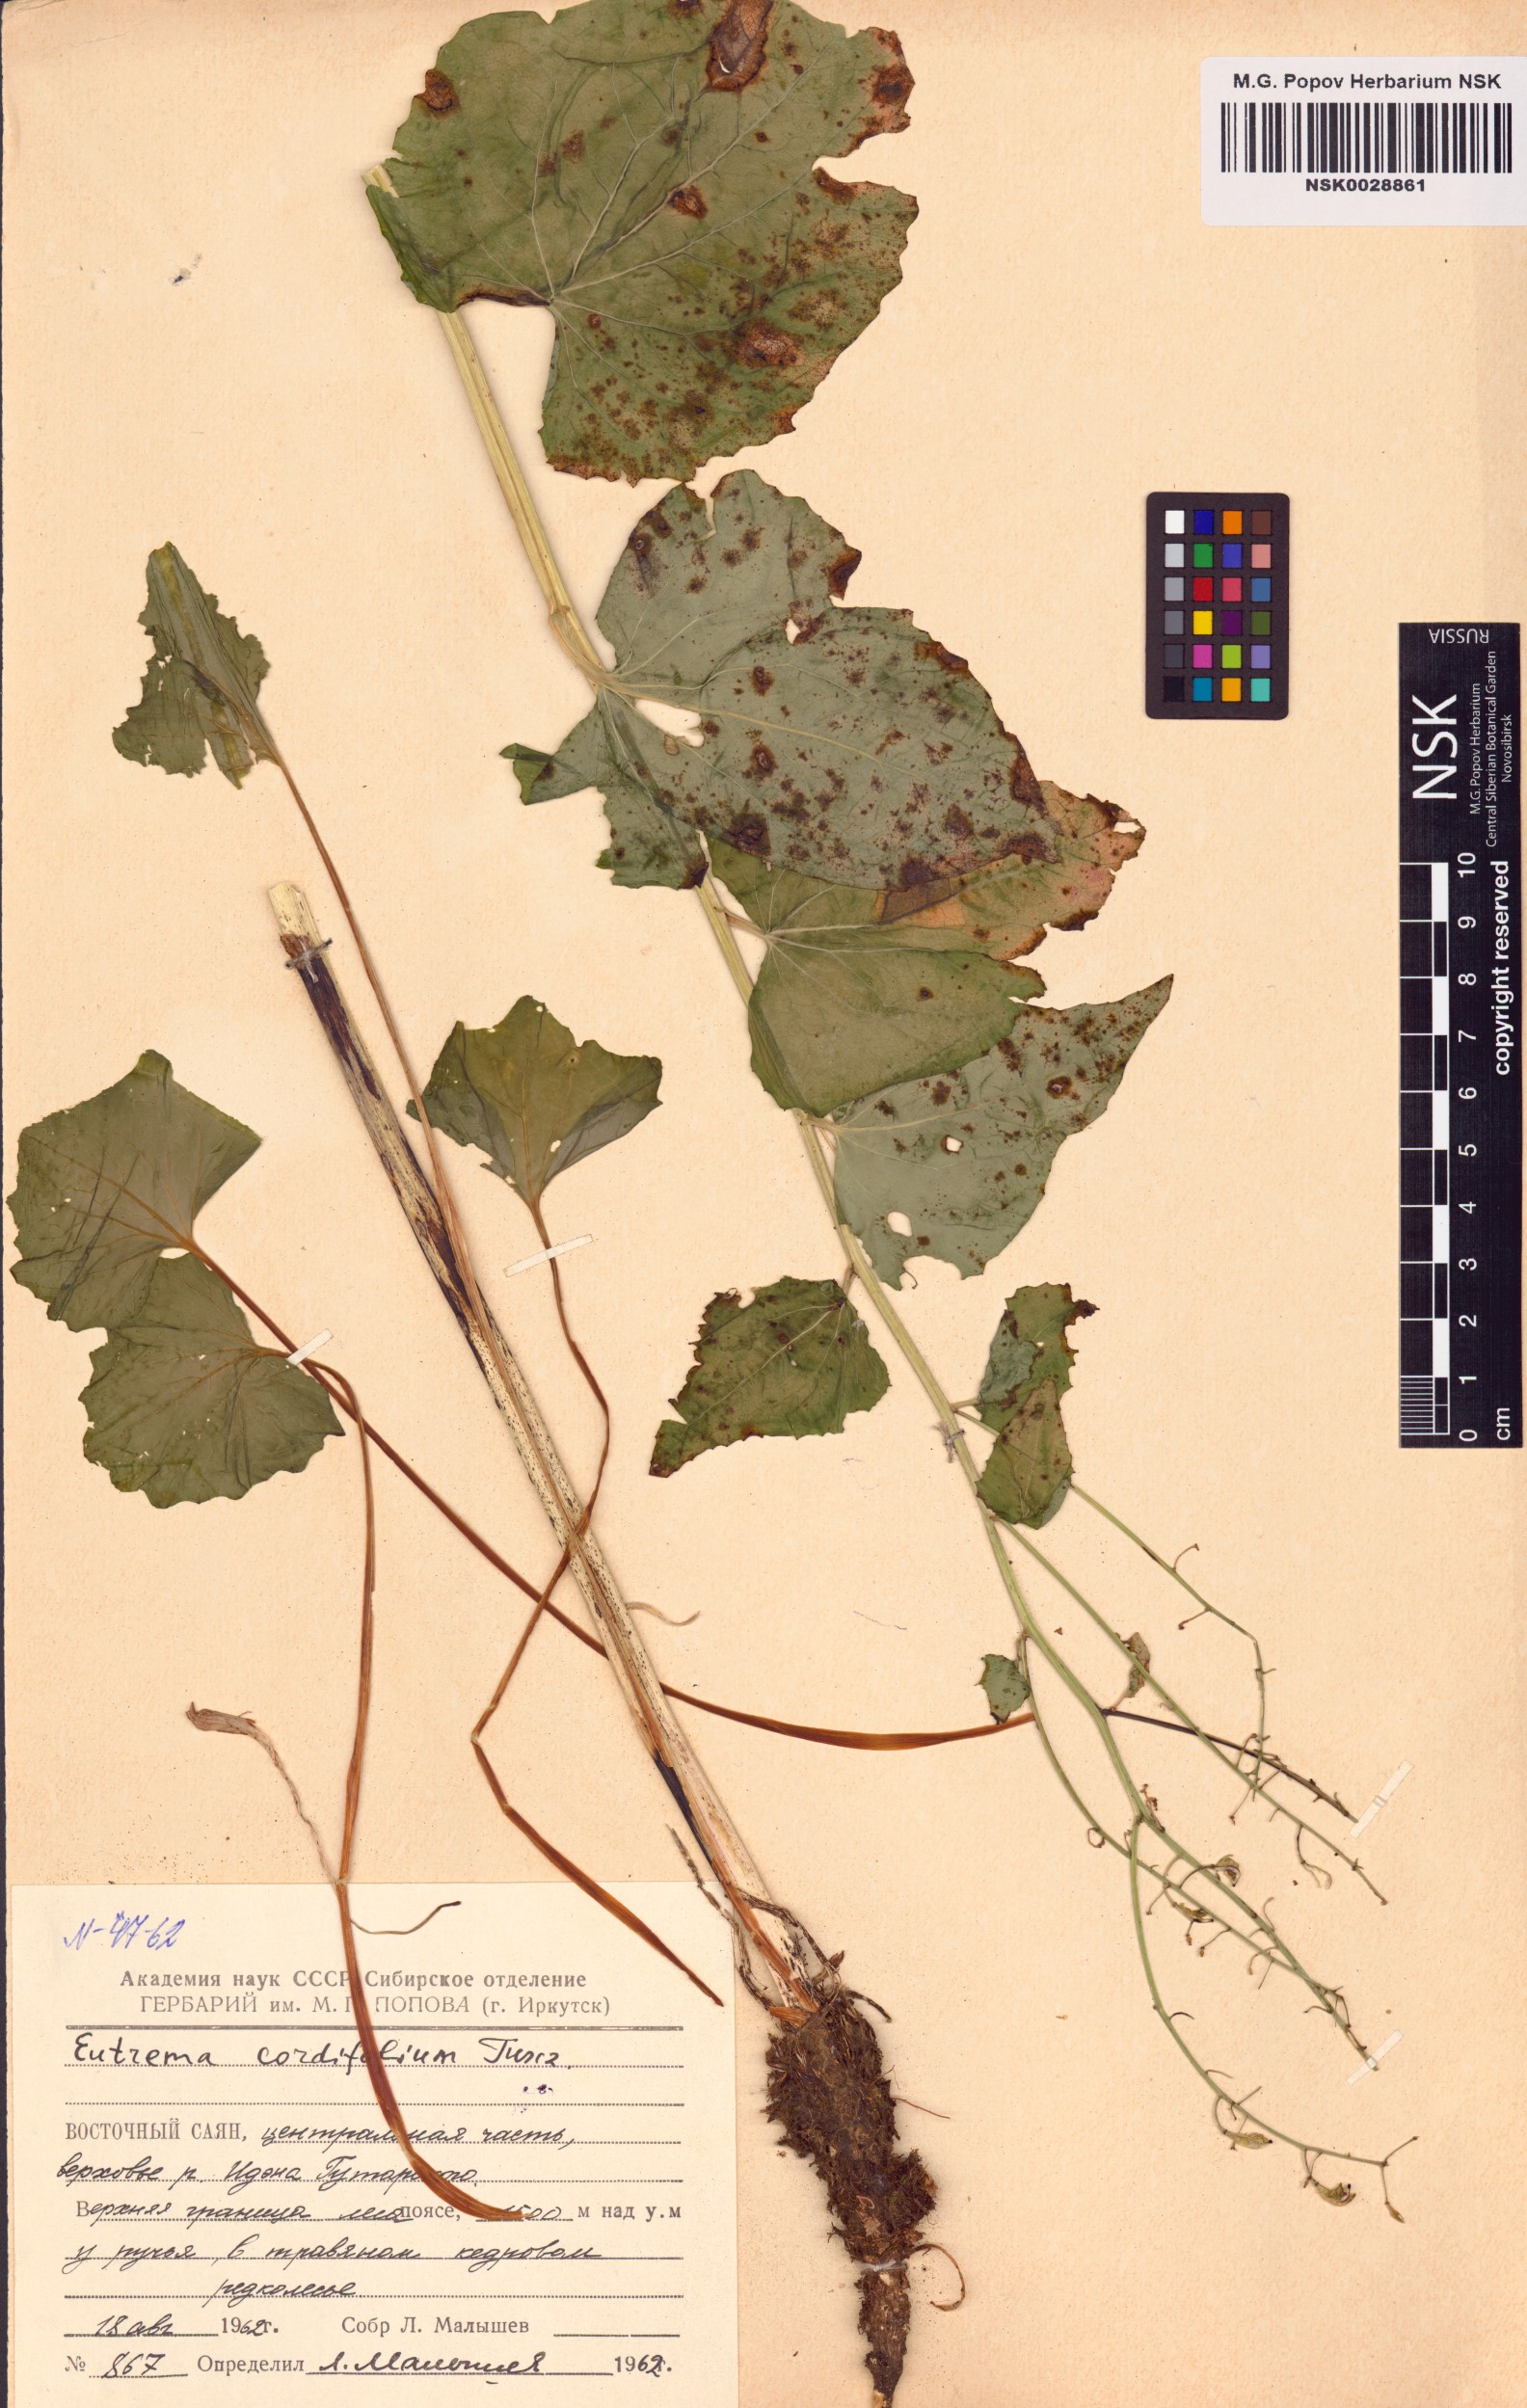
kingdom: Plantae
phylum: Tracheophyta
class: Magnoliopsida
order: Brassicales
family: Brassicaceae
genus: Eutrema
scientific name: Eutrema cordifolium
